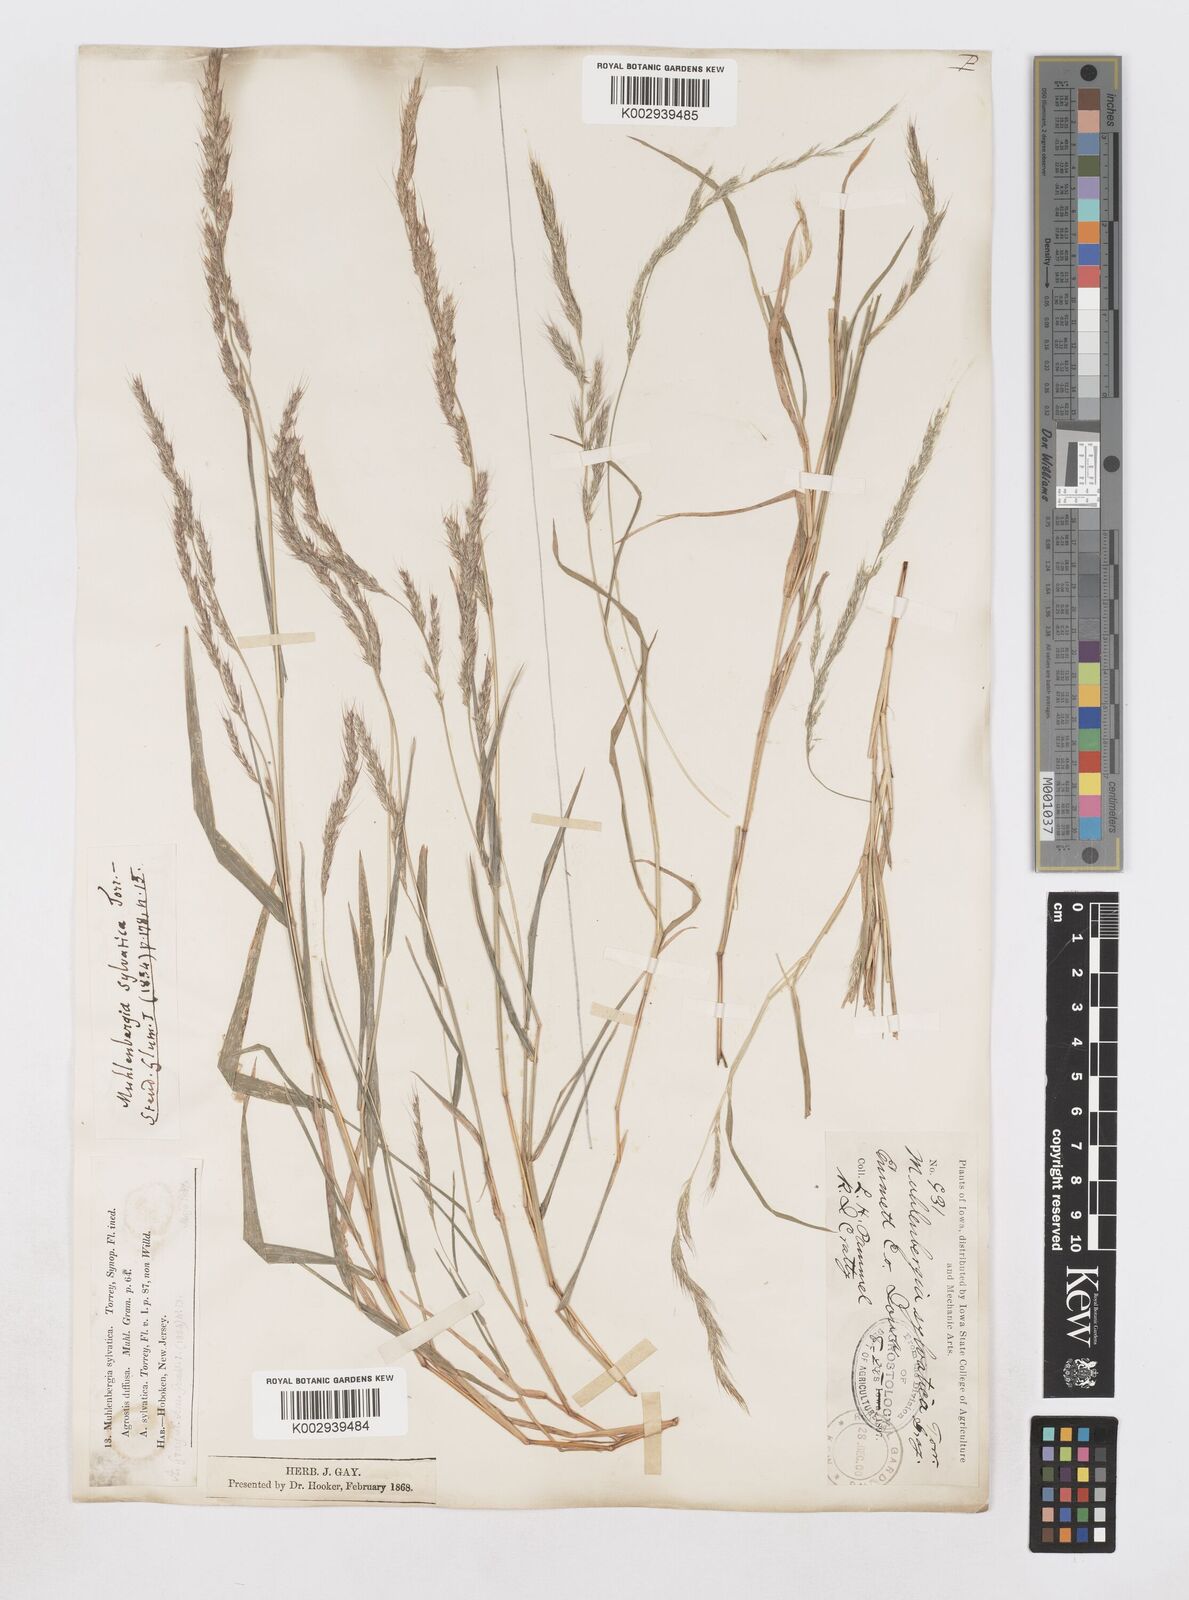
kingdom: Plantae
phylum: Tracheophyta
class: Liliopsida
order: Poales
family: Poaceae
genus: Muhlenbergia
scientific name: Muhlenbergia sylvatica
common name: Woodland muhly
